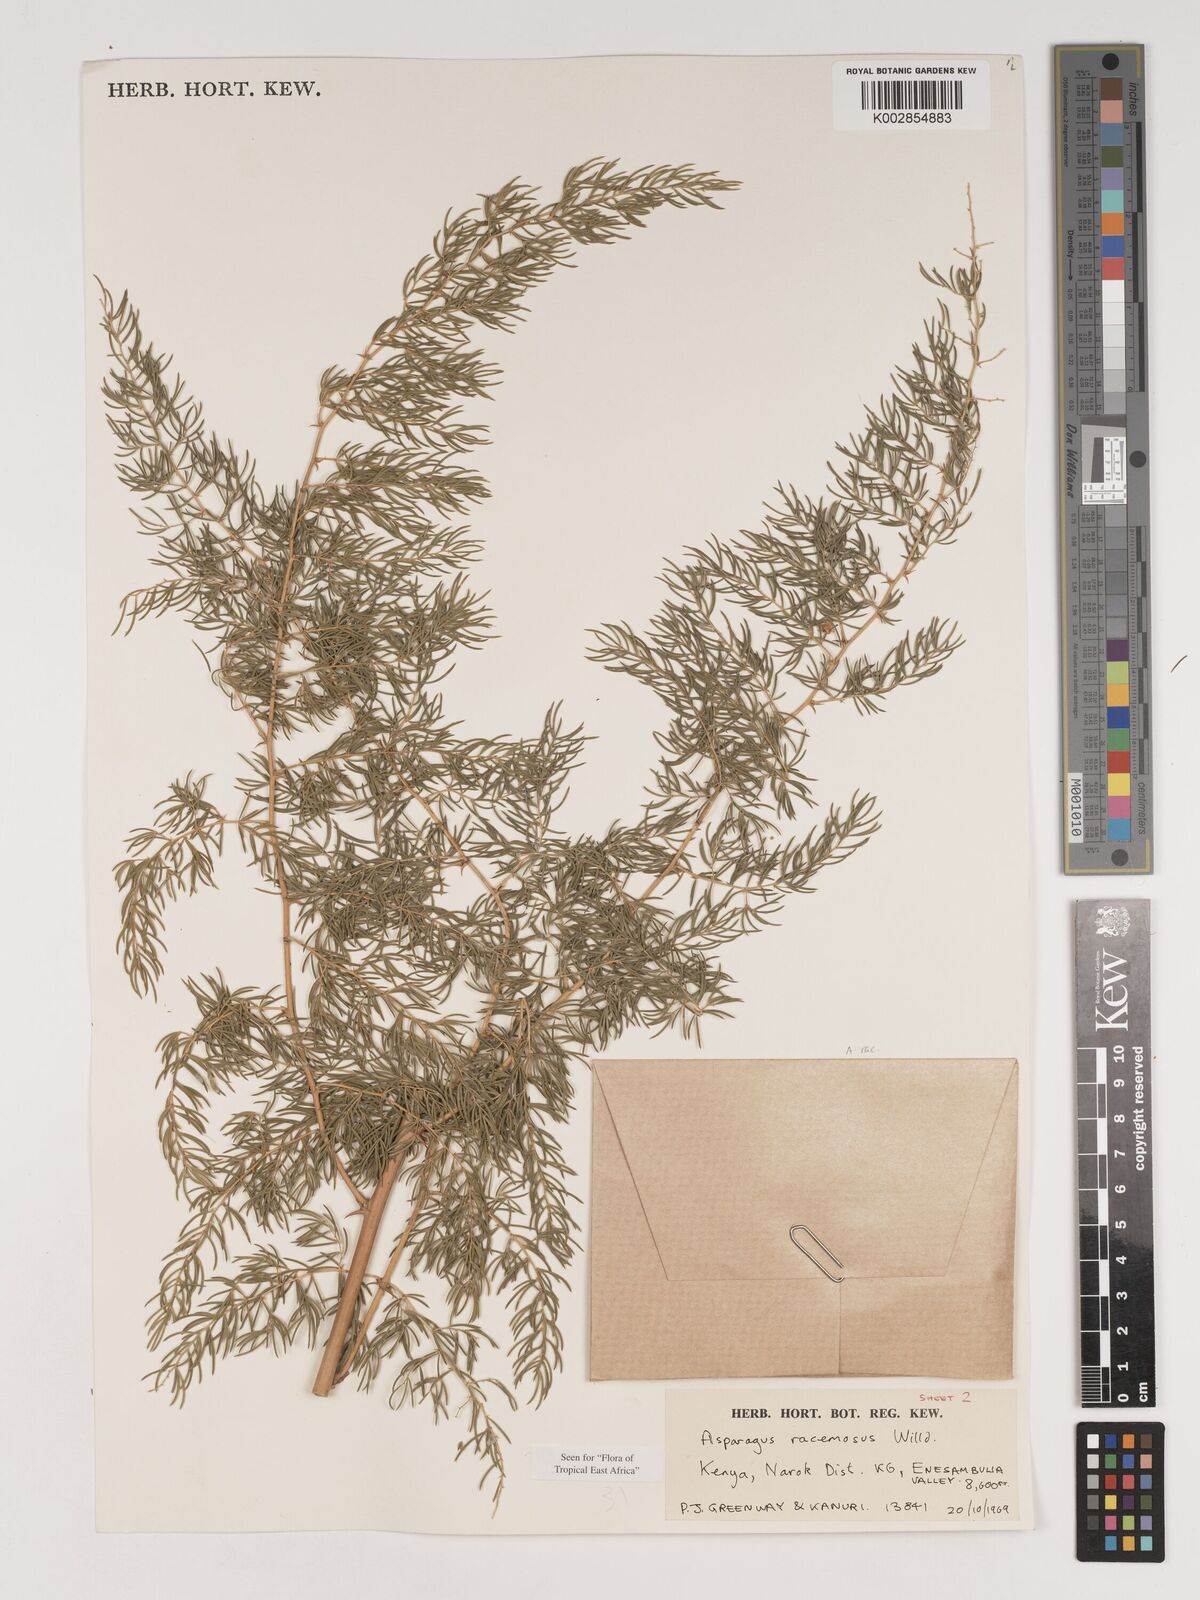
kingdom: Plantae
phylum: Tracheophyta
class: Liliopsida
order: Asparagales
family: Asparagaceae
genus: Asparagus
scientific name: Asparagus racemosus
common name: Asparagus-fern
